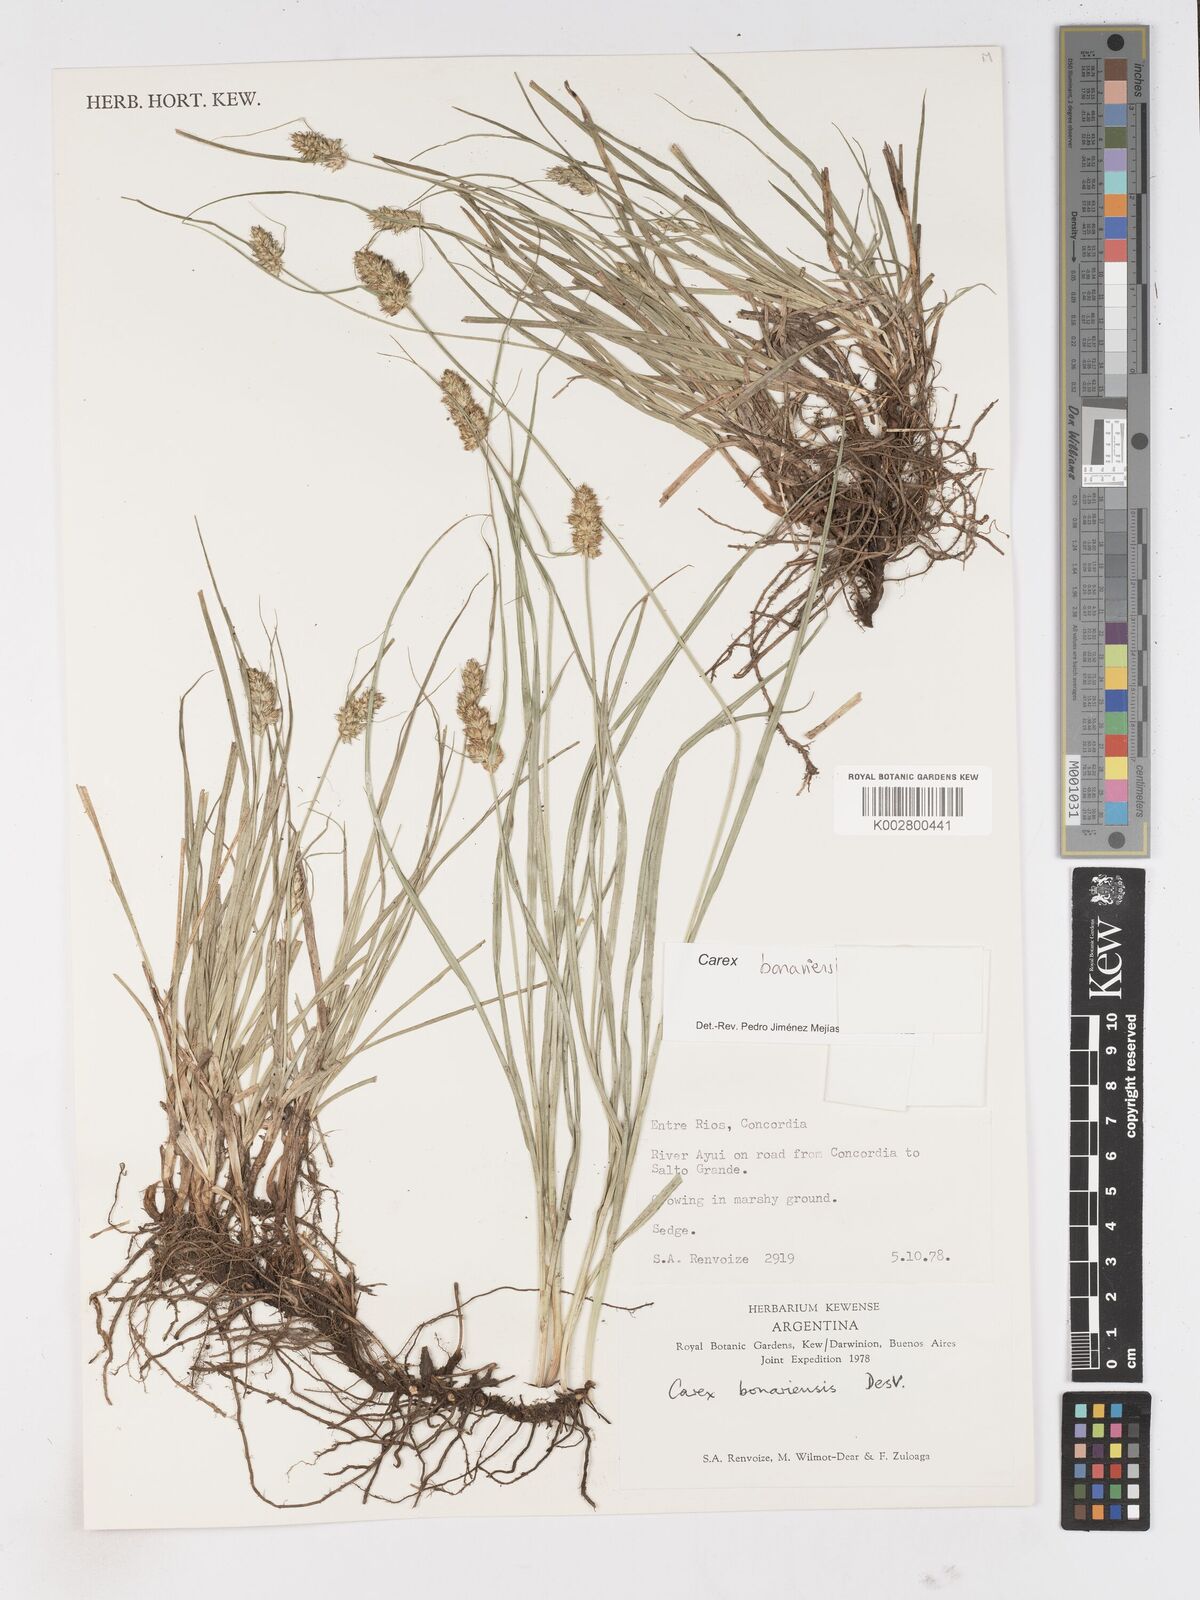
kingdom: Plantae
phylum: Tracheophyta
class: Liliopsida
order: Poales
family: Cyperaceae
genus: Carex
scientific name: Carex bonariensis
